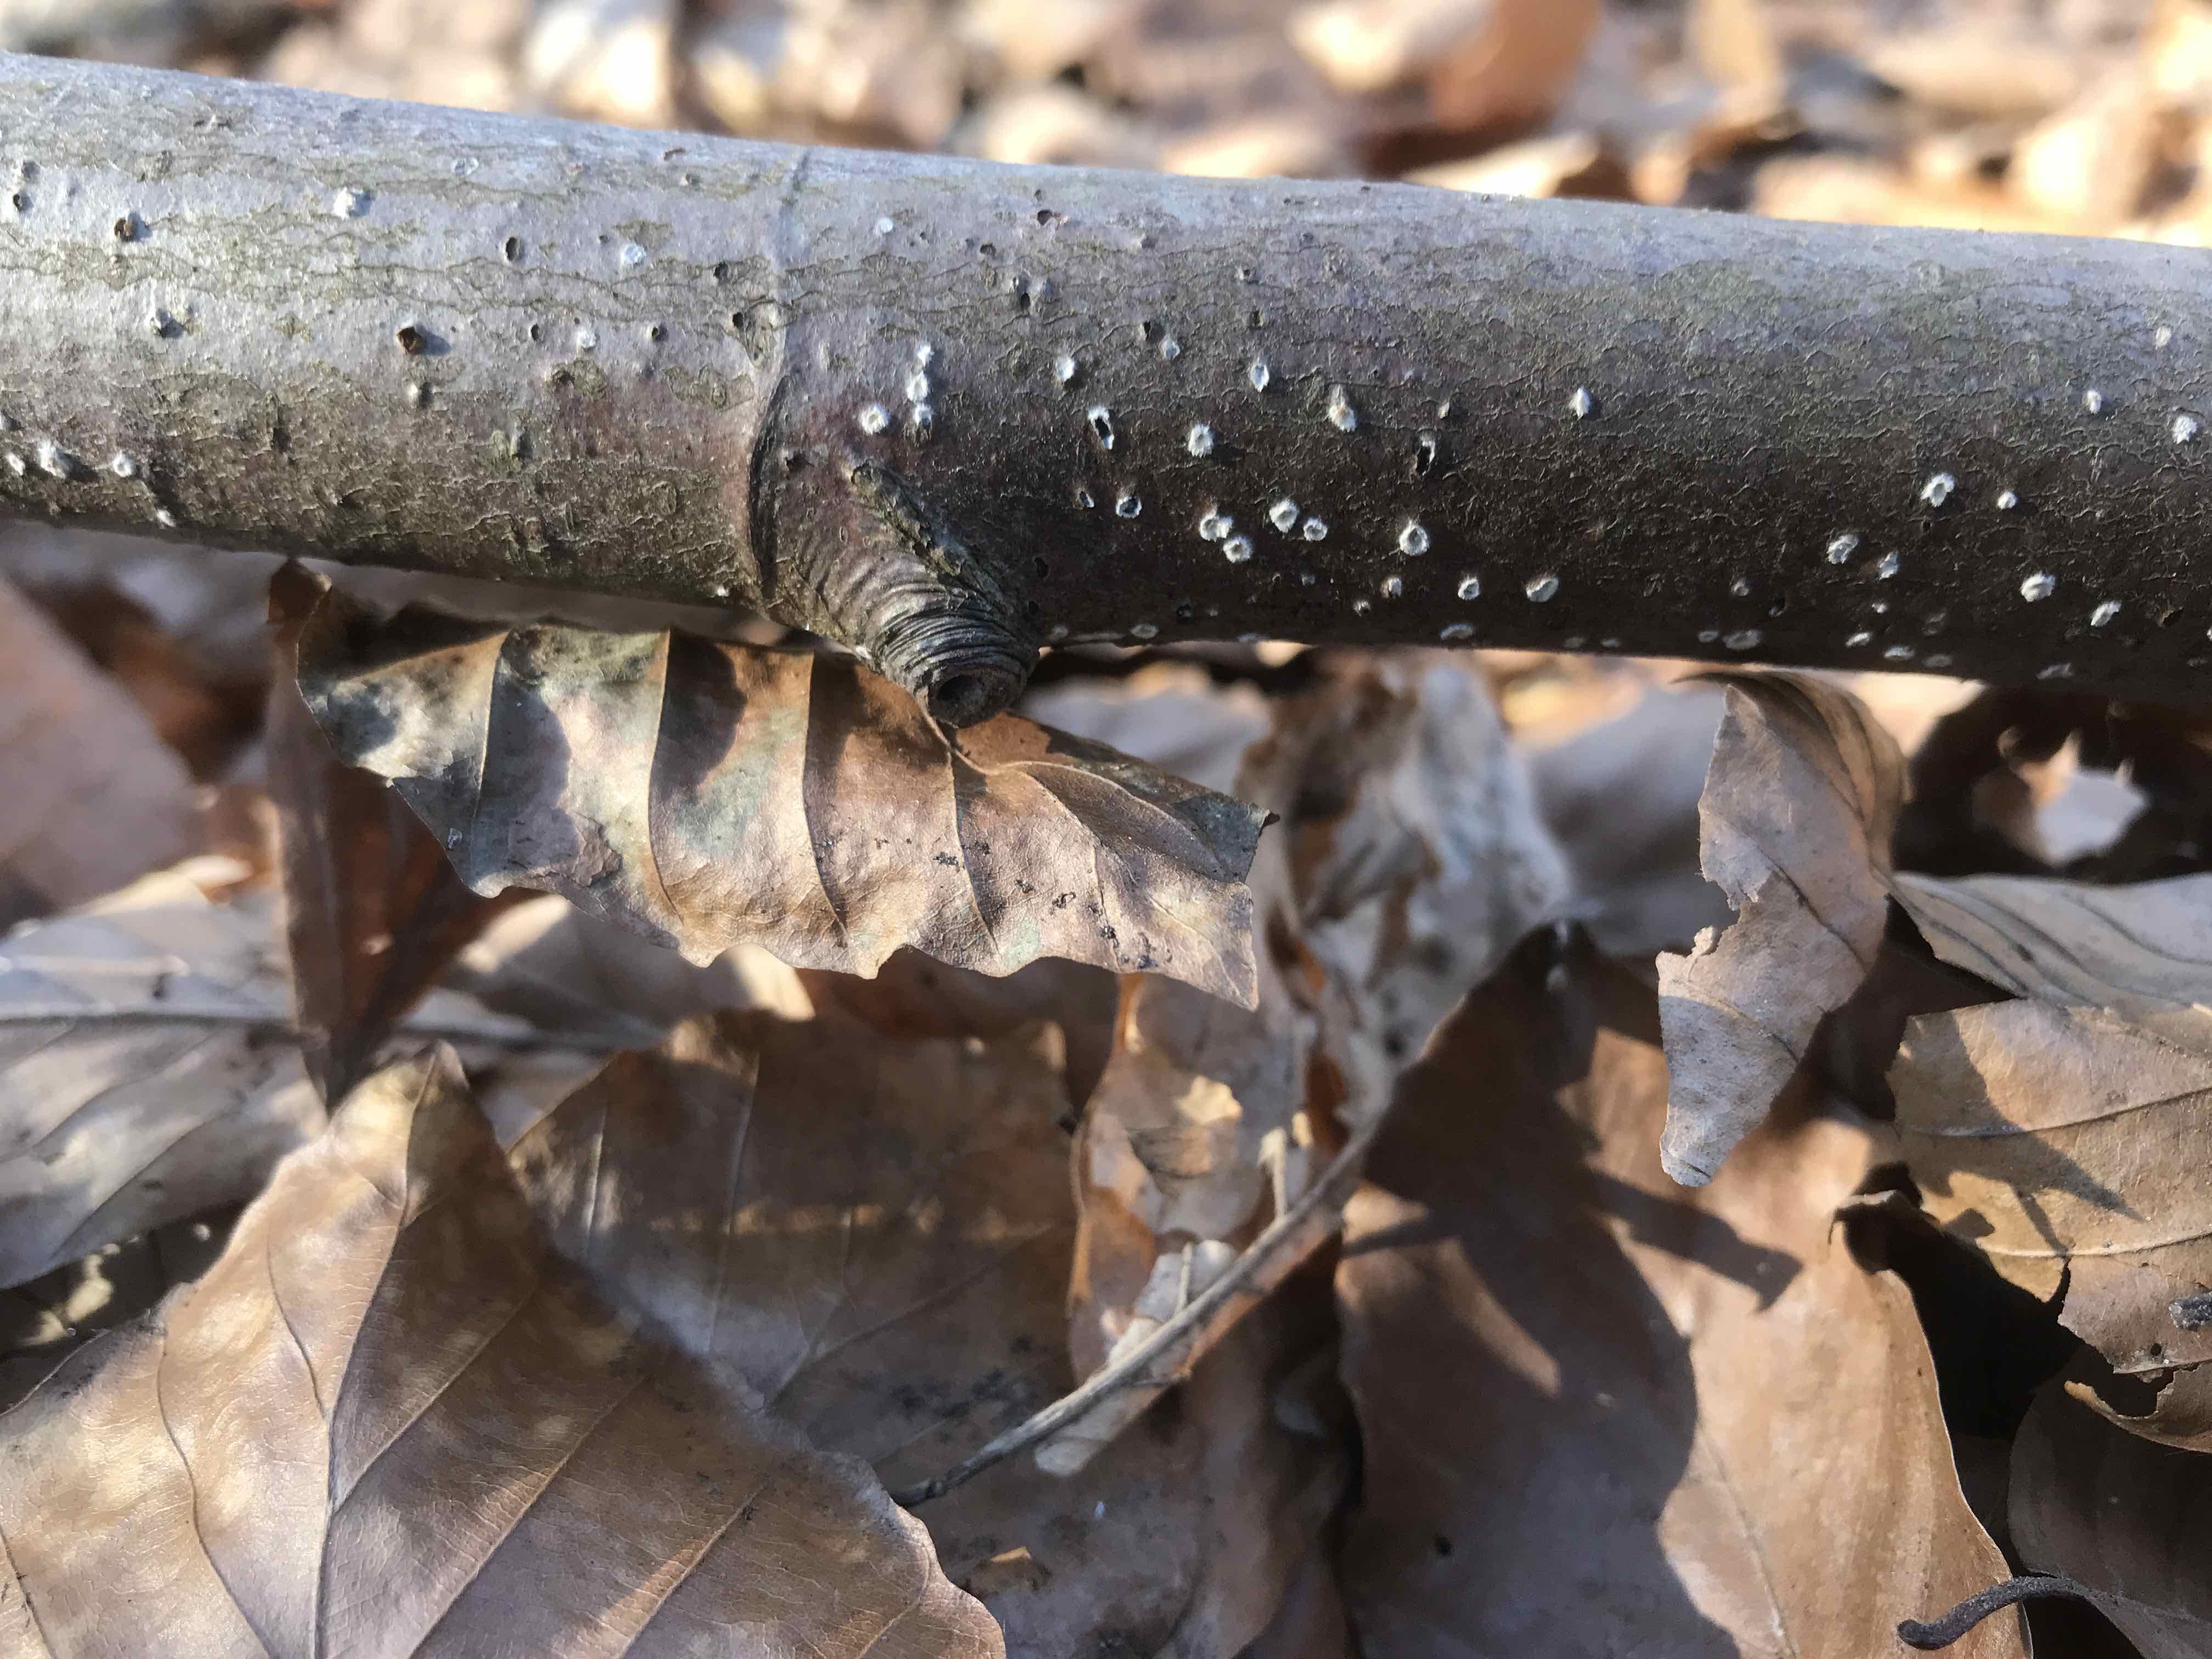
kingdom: Fungi
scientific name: Fungi
